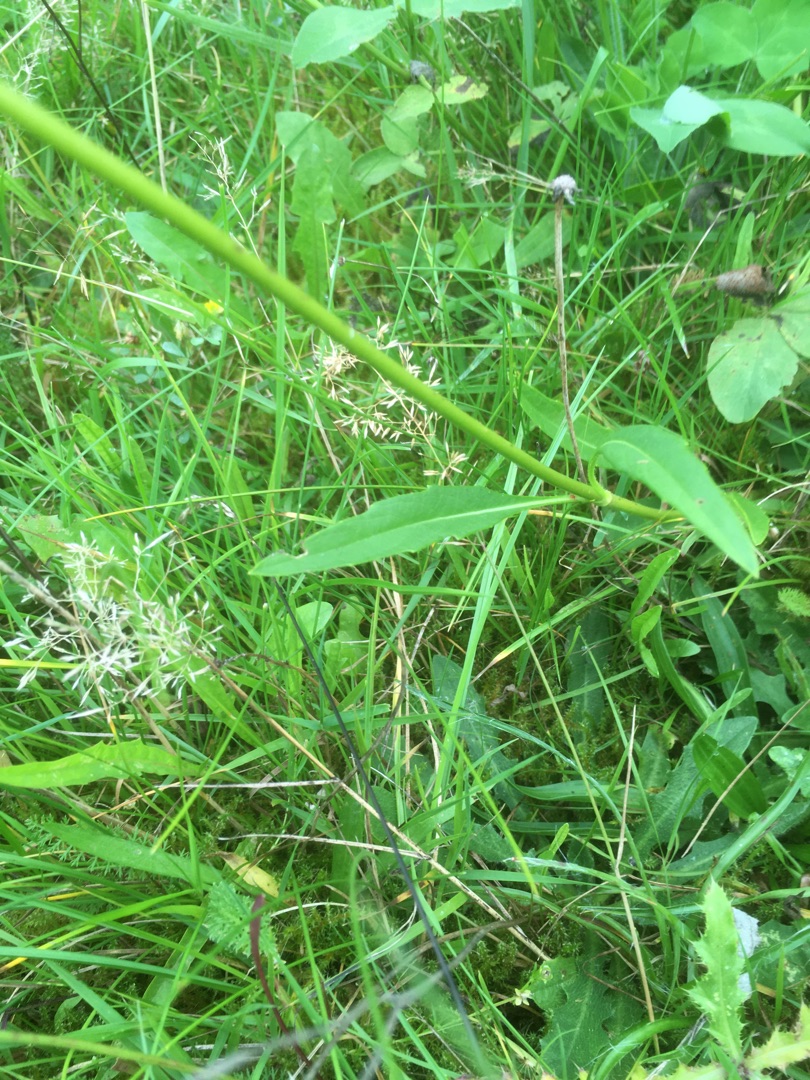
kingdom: Plantae
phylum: Tracheophyta
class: Magnoliopsida
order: Dipsacales
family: Caprifoliaceae
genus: Succisa
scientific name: Succisa pratensis
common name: Djævelsbid
